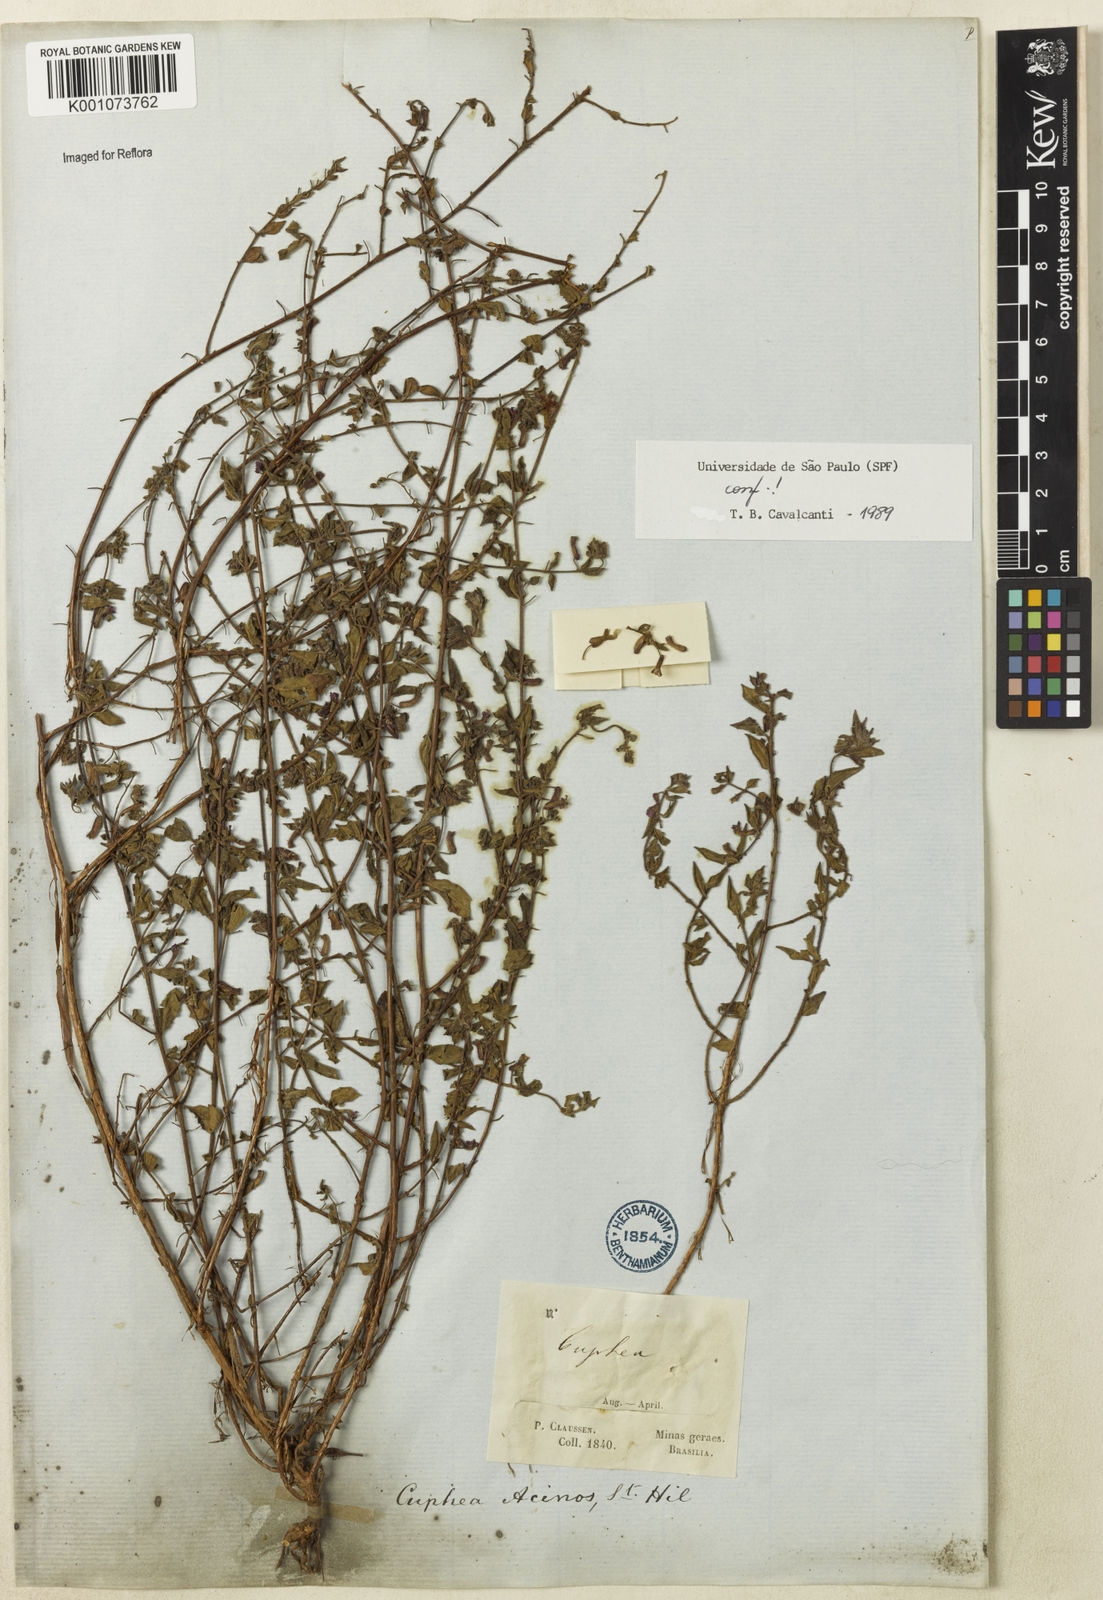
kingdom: Plantae
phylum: Tracheophyta
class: Magnoliopsida
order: Myrtales
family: Lythraceae
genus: Cuphea
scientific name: Cuphea acinos
